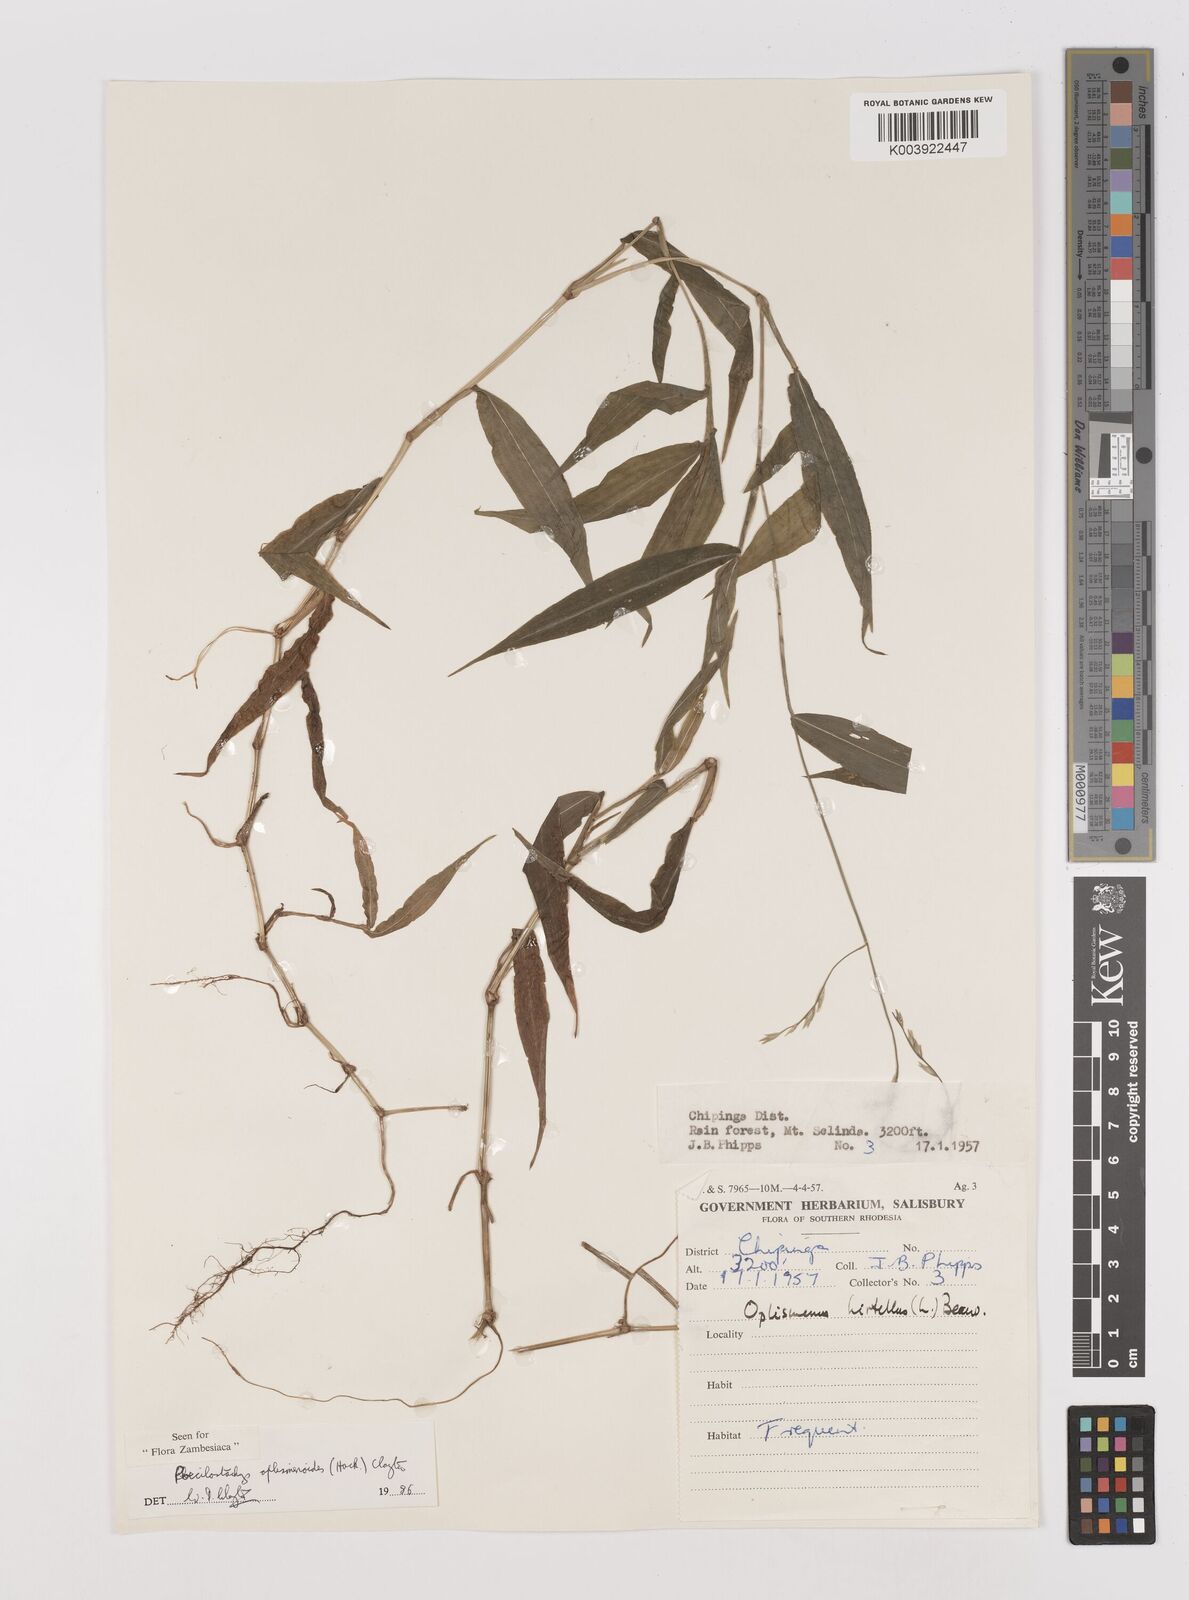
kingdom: Plantae
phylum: Tracheophyta
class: Liliopsida
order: Poales
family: Poaceae
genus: Poecilostachys
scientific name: Poecilostachys oplismenoides
